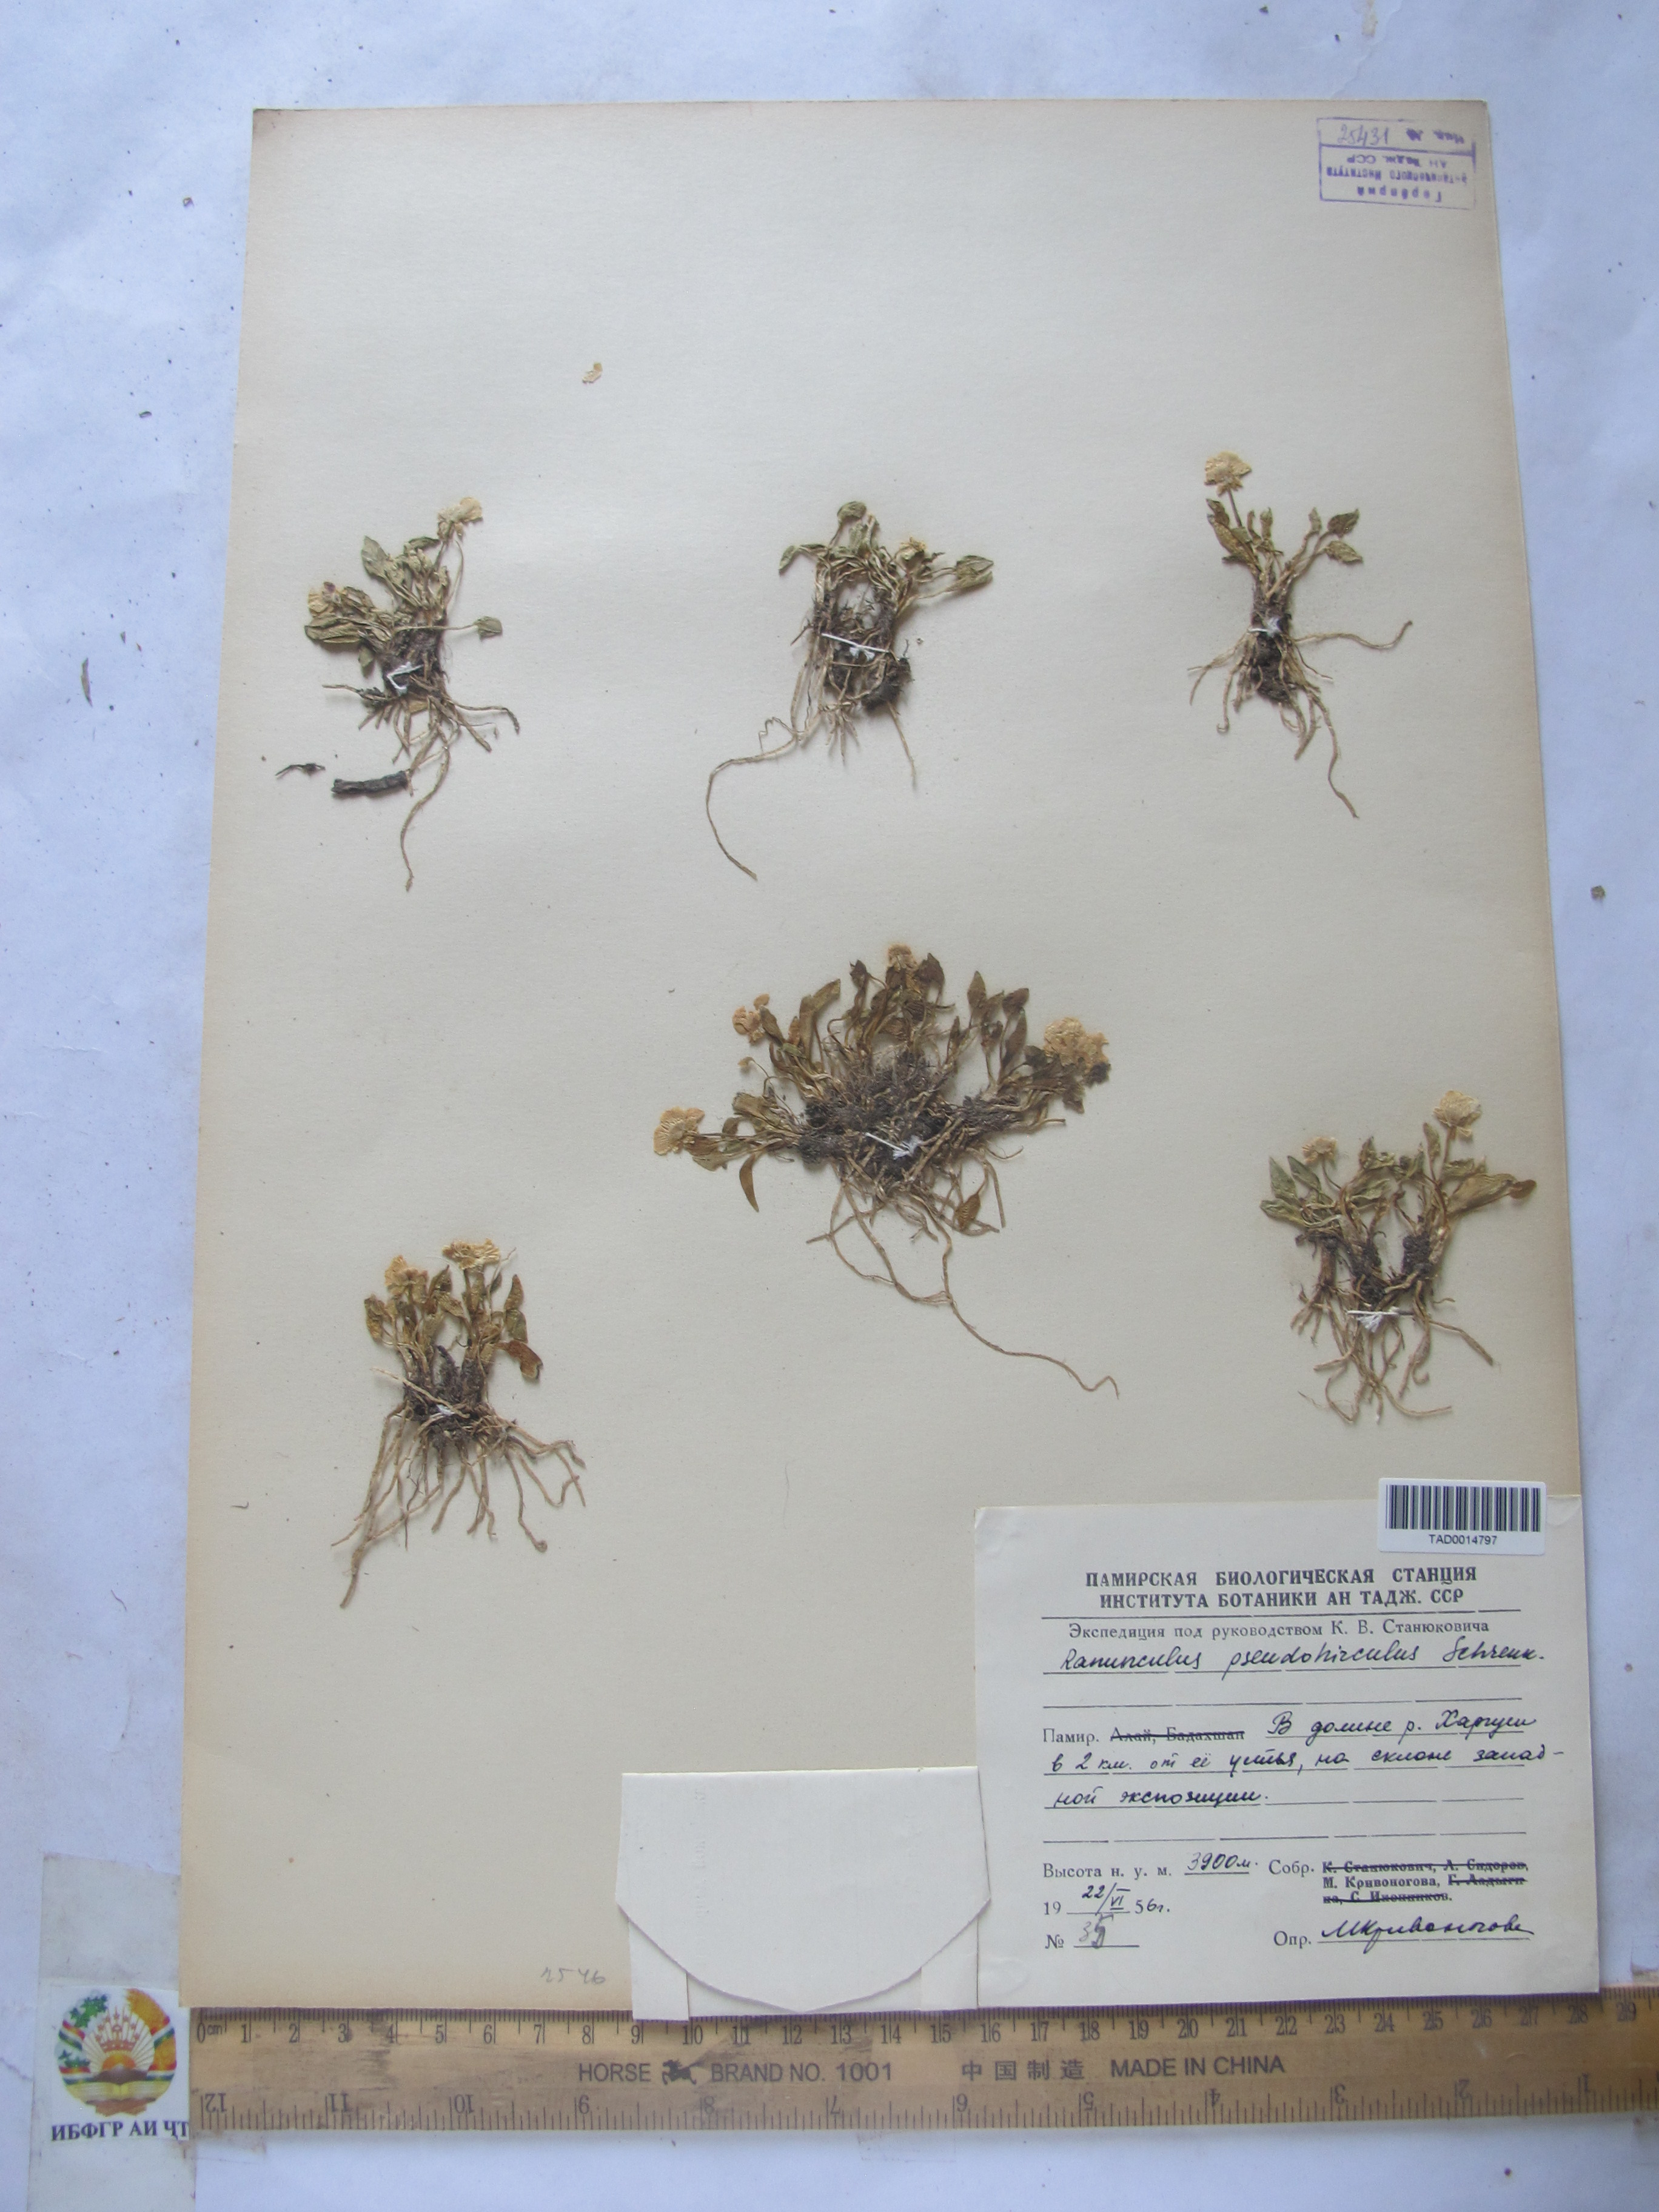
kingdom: Plantae
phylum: Tracheophyta
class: Magnoliopsida
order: Ranunculales
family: Ranunculaceae
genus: Ranunculus
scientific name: Ranunculus pseudohirculus
